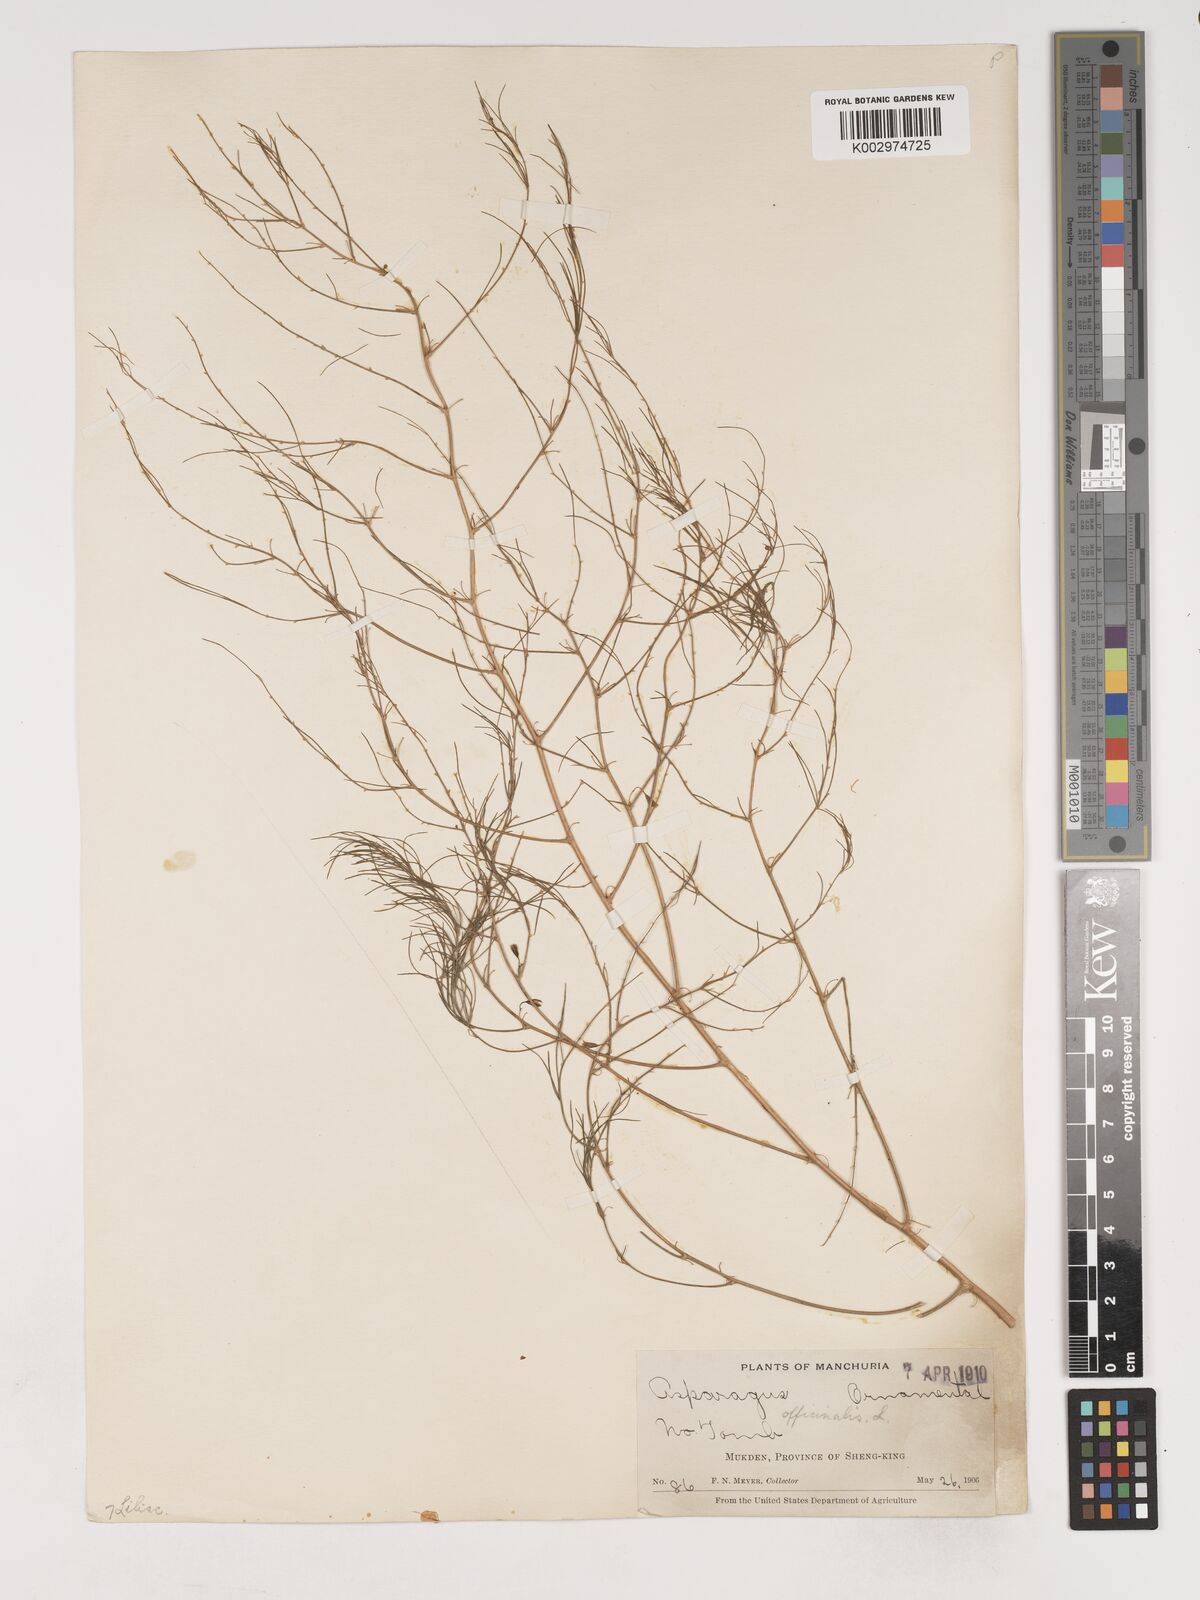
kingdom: Plantae
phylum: Tracheophyta
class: Liliopsida
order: Asparagales
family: Asparagaceae
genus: Asparagus
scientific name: Asparagus dauricus
